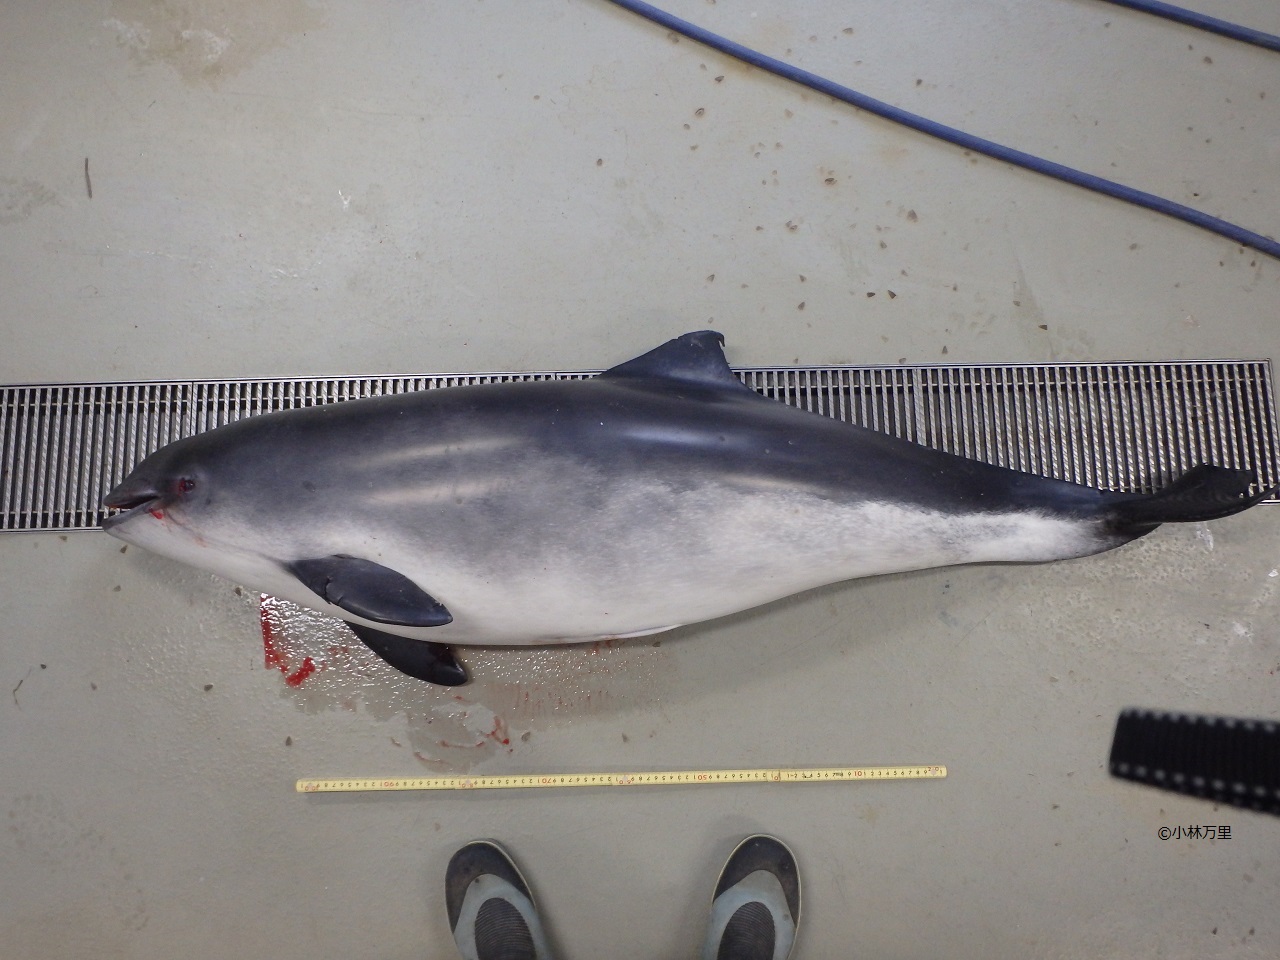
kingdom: Animalia
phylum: Chordata
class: Mammalia
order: Cetacea
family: Phocoenidae
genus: Phocoena
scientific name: Phocoena phocoena
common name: Harbour porpoise
